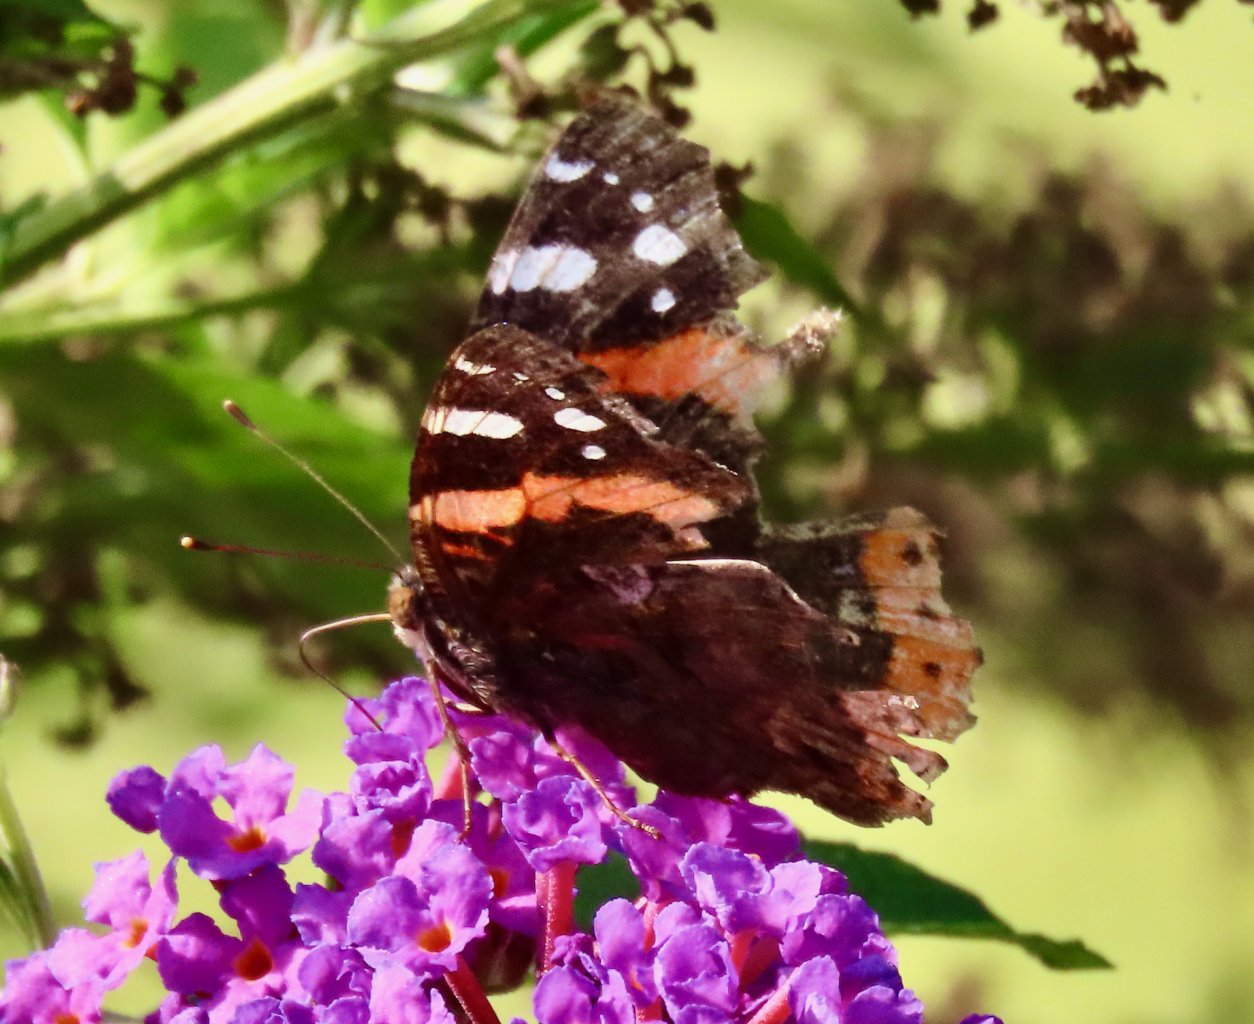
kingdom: Animalia
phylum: Arthropoda
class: Insecta
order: Lepidoptera
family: Nymphalidae
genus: Vanessa
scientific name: Vanessa atalanta
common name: Red Admiral
